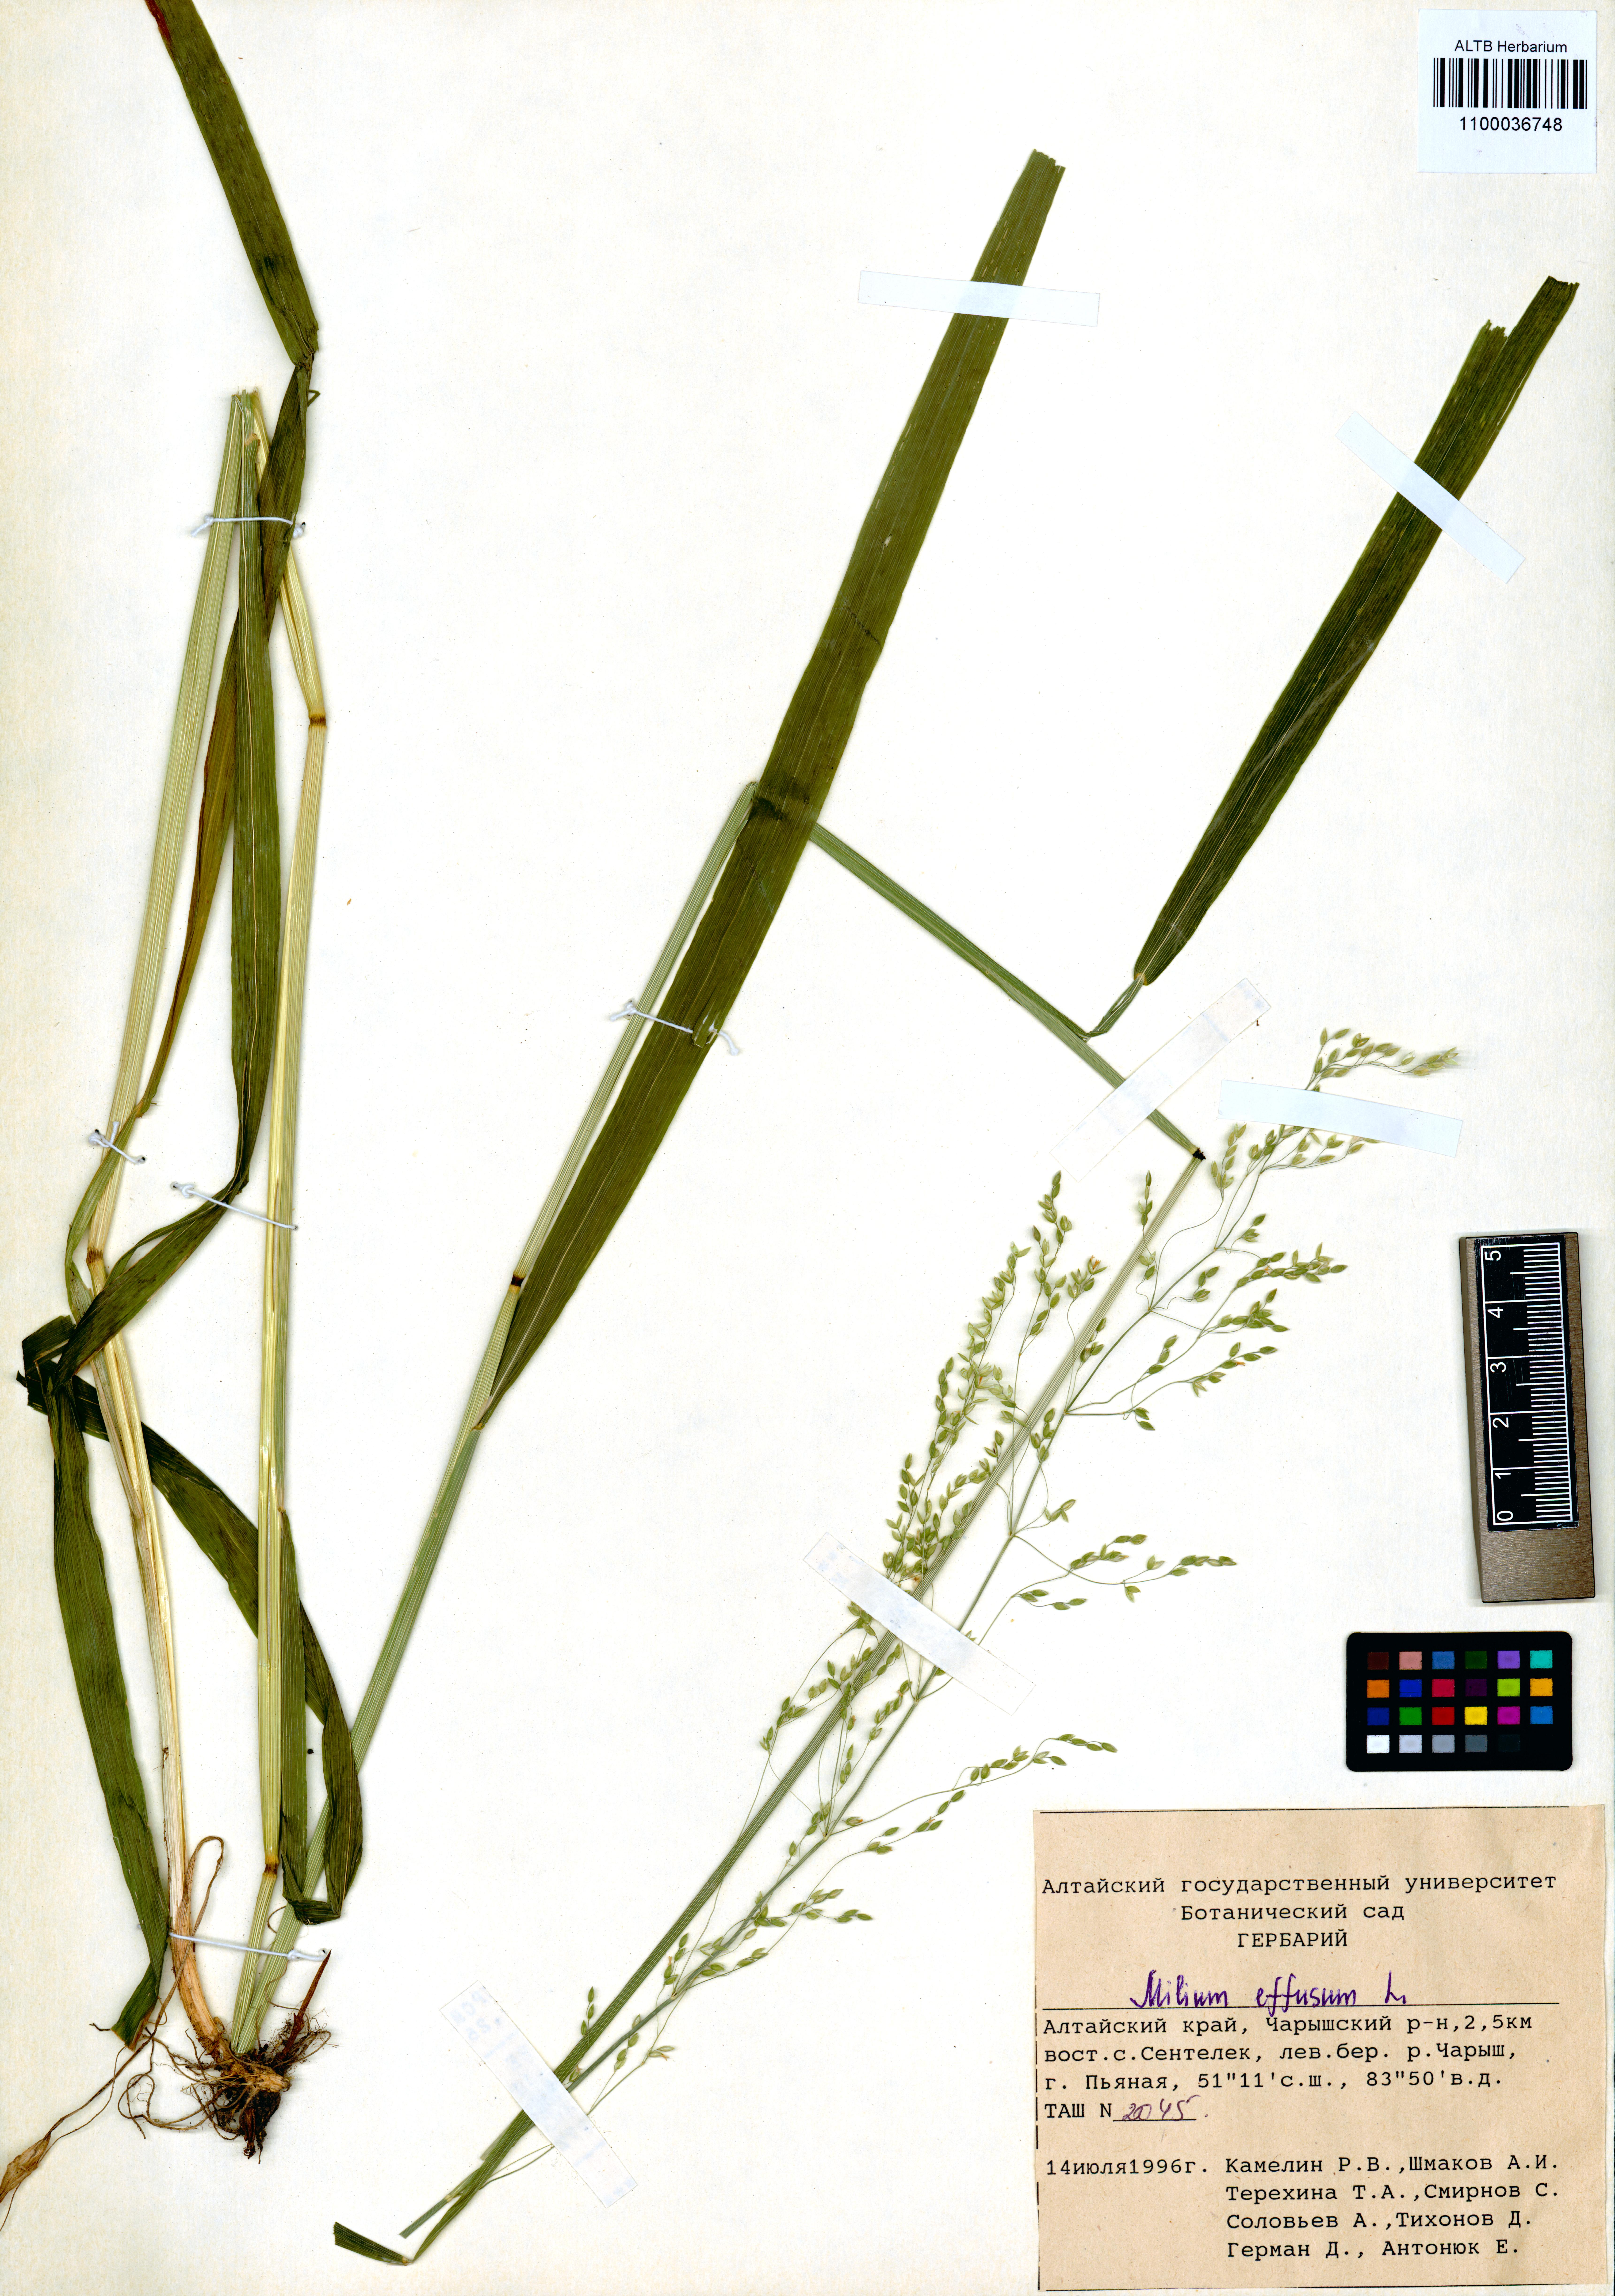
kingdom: Plantae
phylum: Tracheophyta
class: Liliopsida
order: Poales
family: Poaceae
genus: Milium
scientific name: Milium effusum
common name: Wood millet
